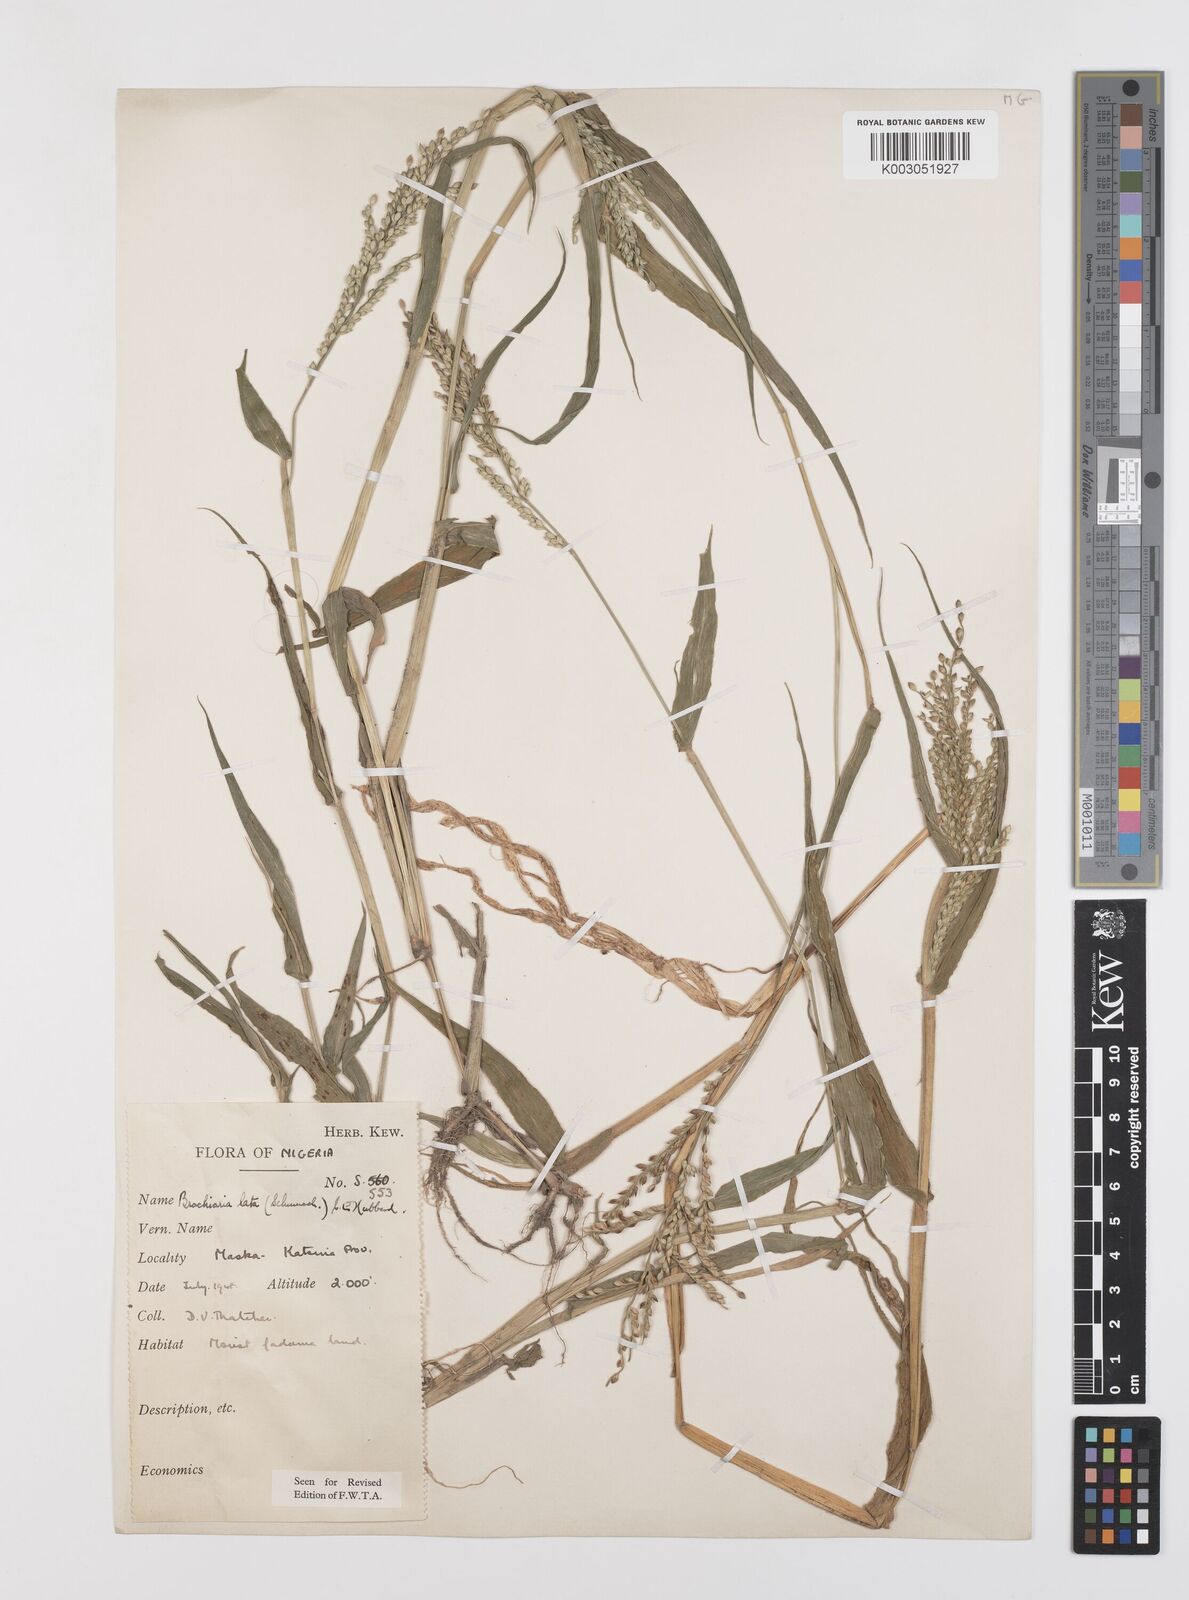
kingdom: Plantae
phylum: Tracheophyta
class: Liliopsida
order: Poales
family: Poaceae
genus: Urochloa
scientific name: Urochloa lata
